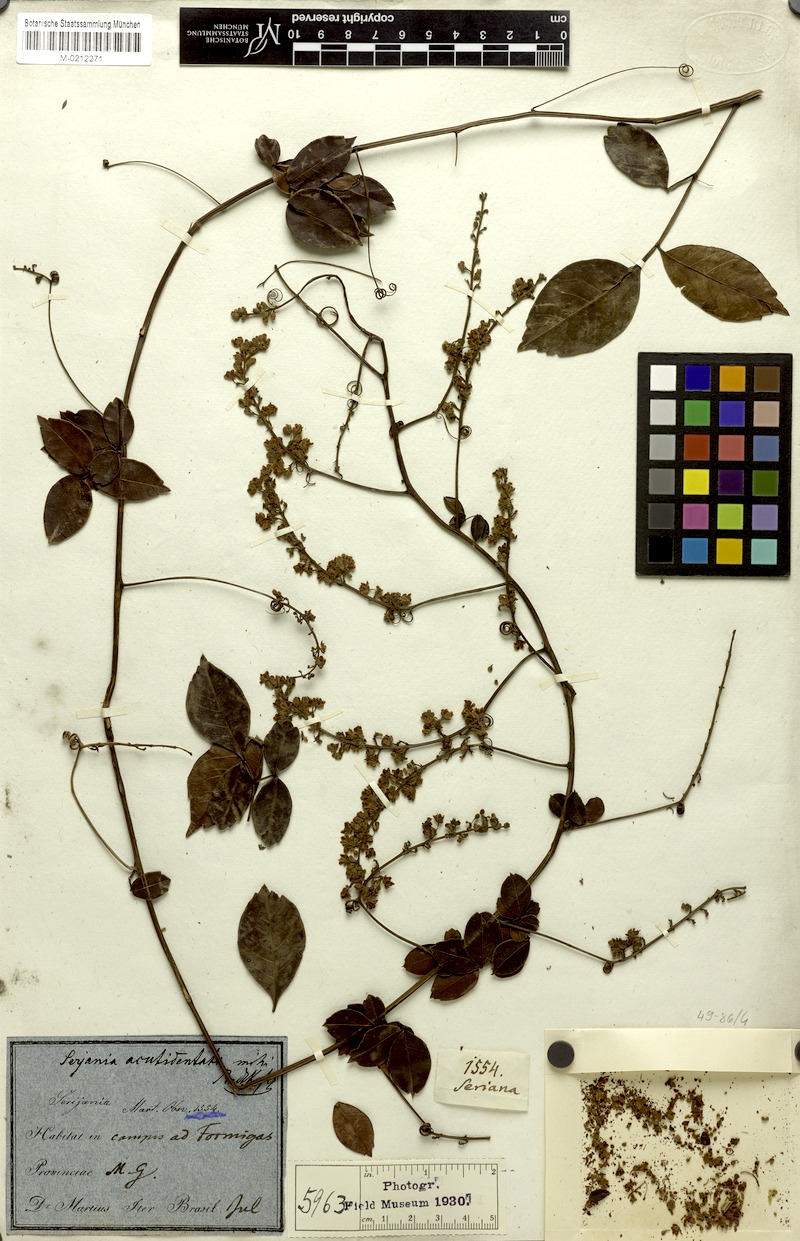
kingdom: Plantae
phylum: Tracheophyta
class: Magnoliopsida
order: Sapindales
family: Sapindaceae
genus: Serjania
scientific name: Serjania acutidentata
